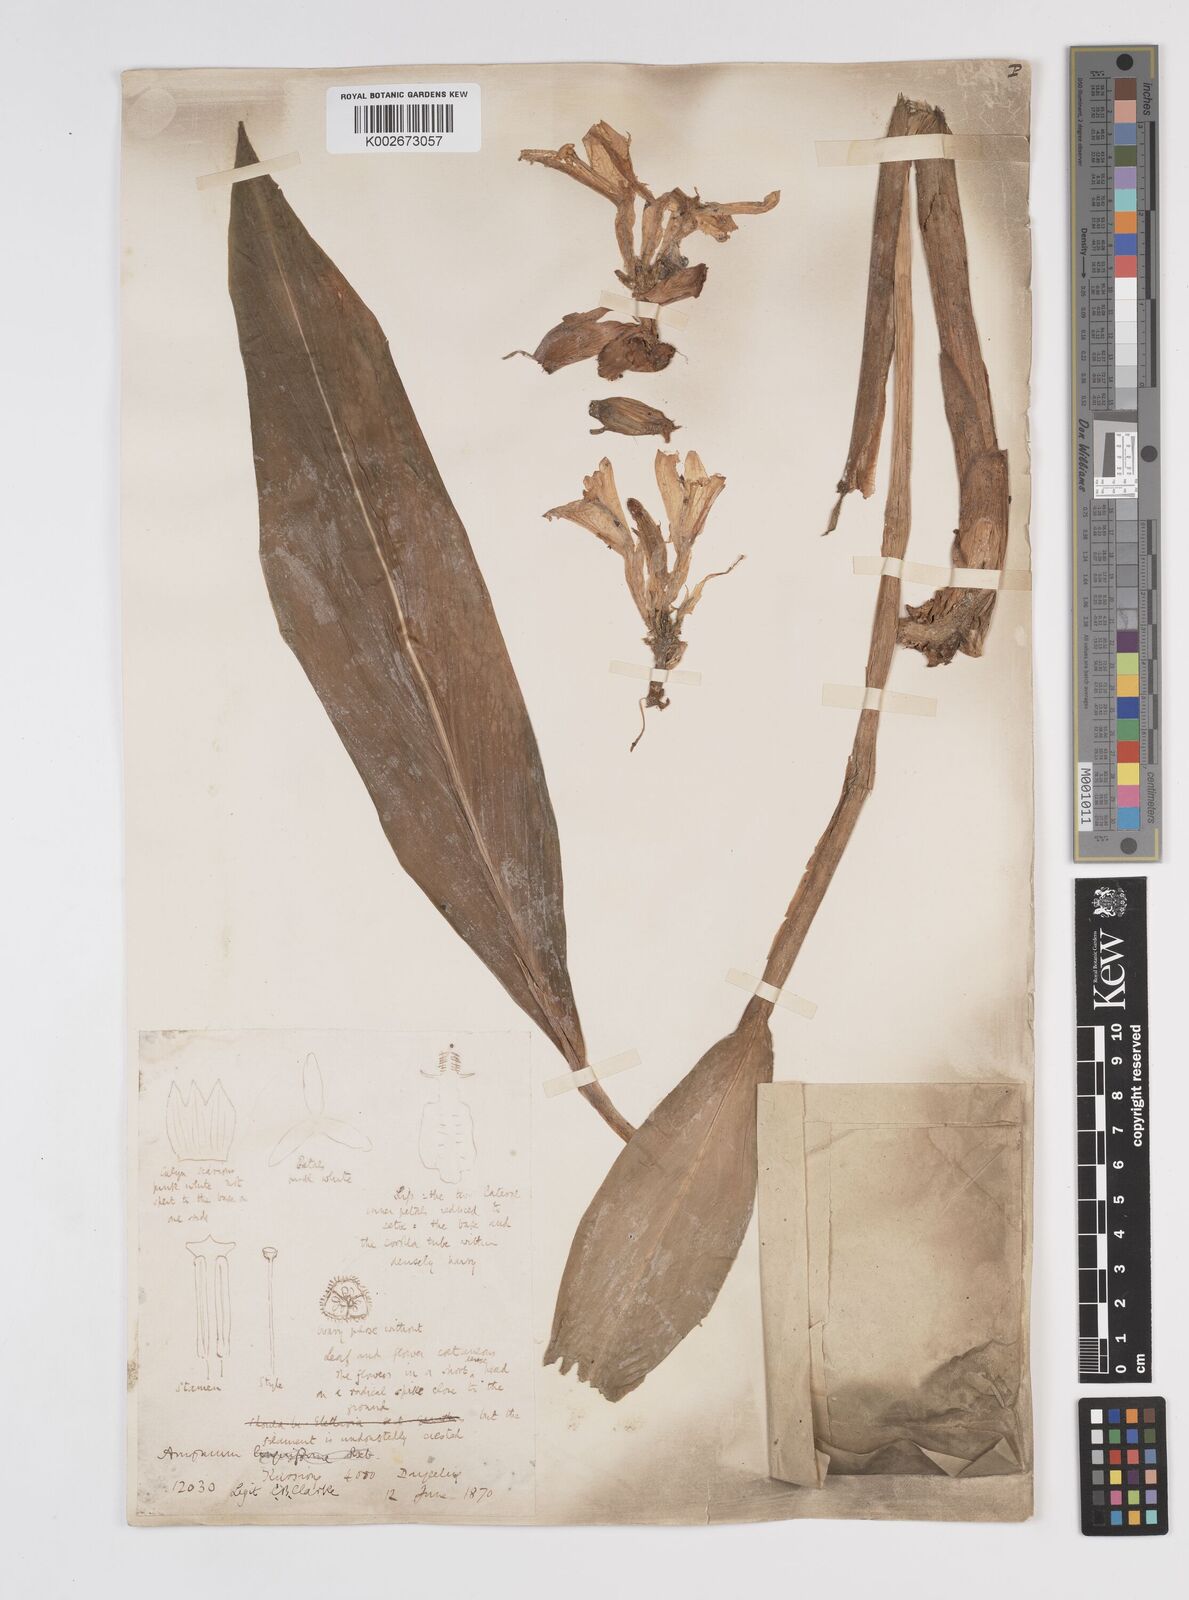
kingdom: Plantae
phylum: Tracheophyta
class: Liliopsida
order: Zingiberales
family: Zingiberaceae
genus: Wurfbainia
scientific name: Wurfbainia aromatica
